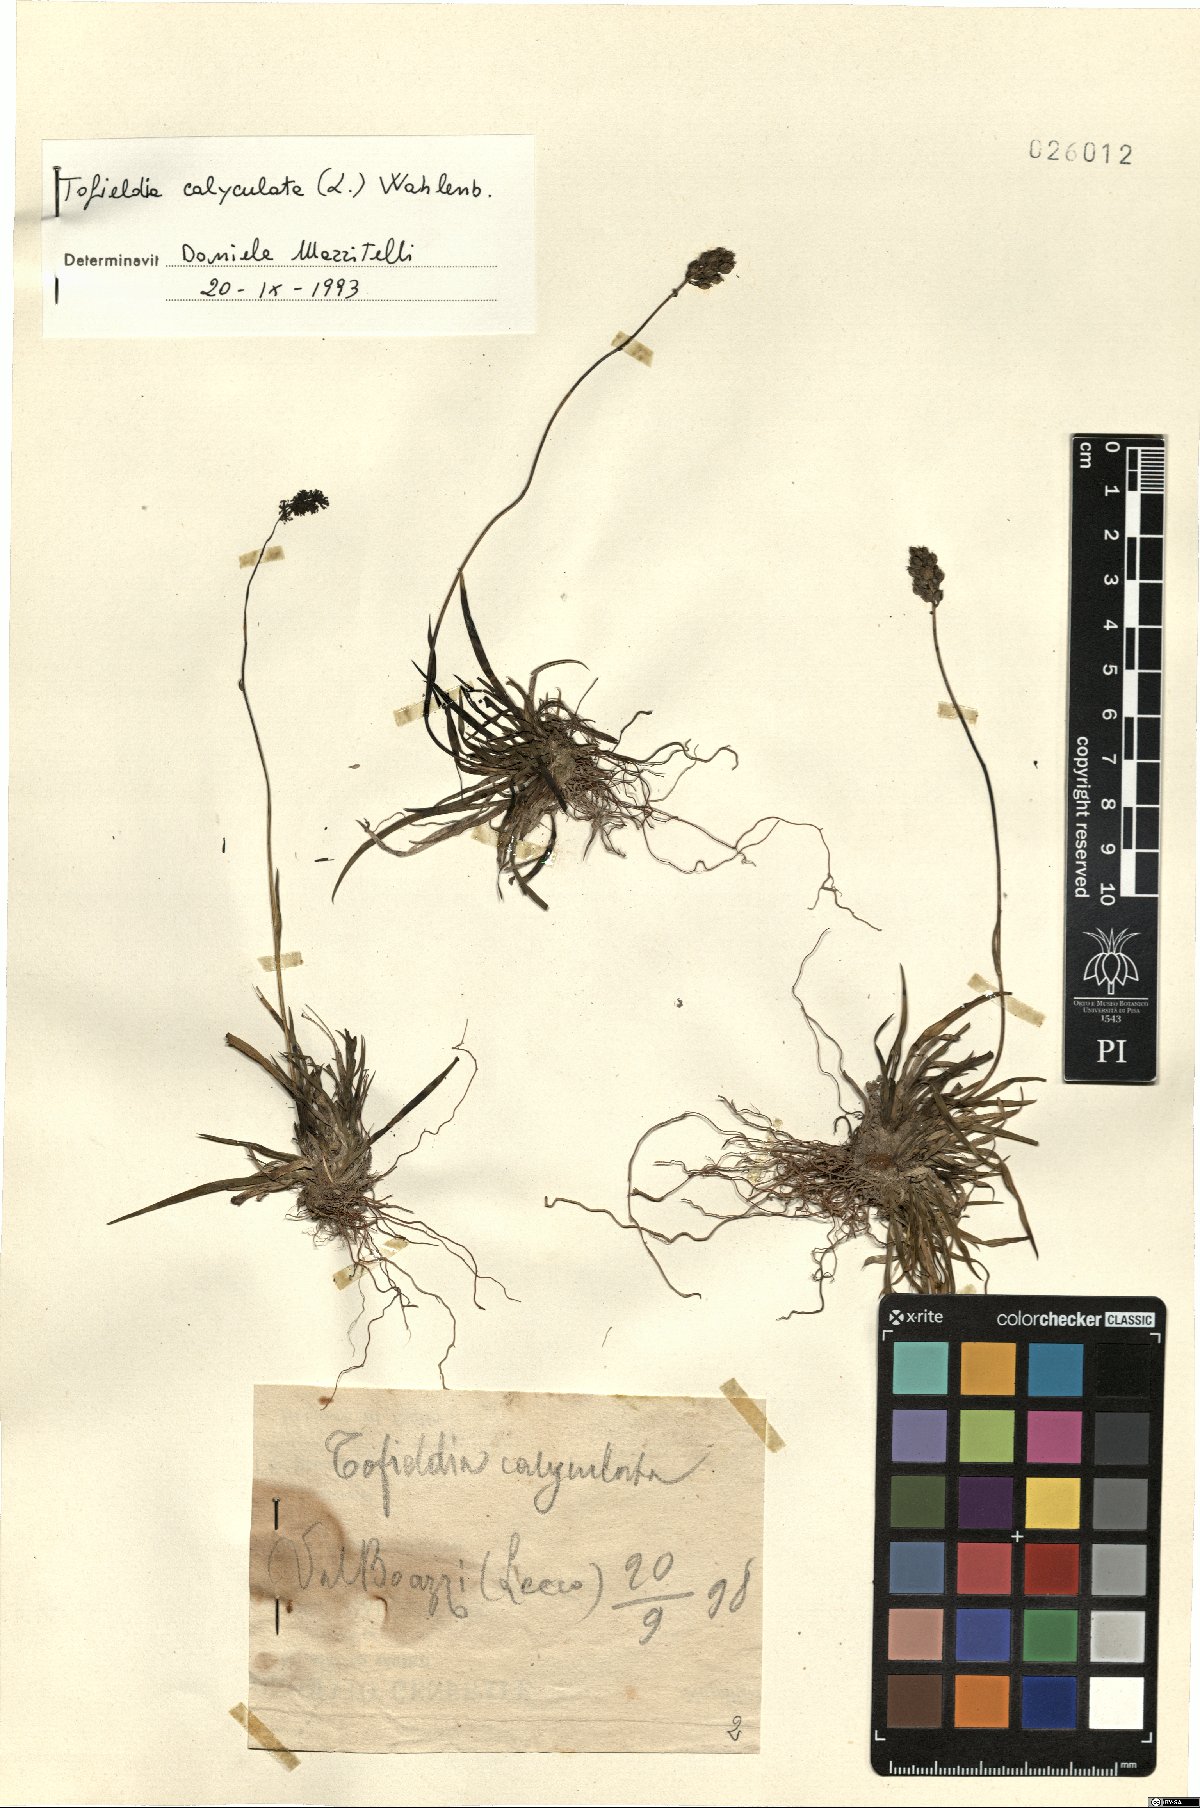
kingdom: Plantae
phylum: Tracheophyta
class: Liliopsida
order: Alismatales
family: Tofieldiaceae
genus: Tofieldia
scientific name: Tofieldia calyculata
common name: German-asphodel
